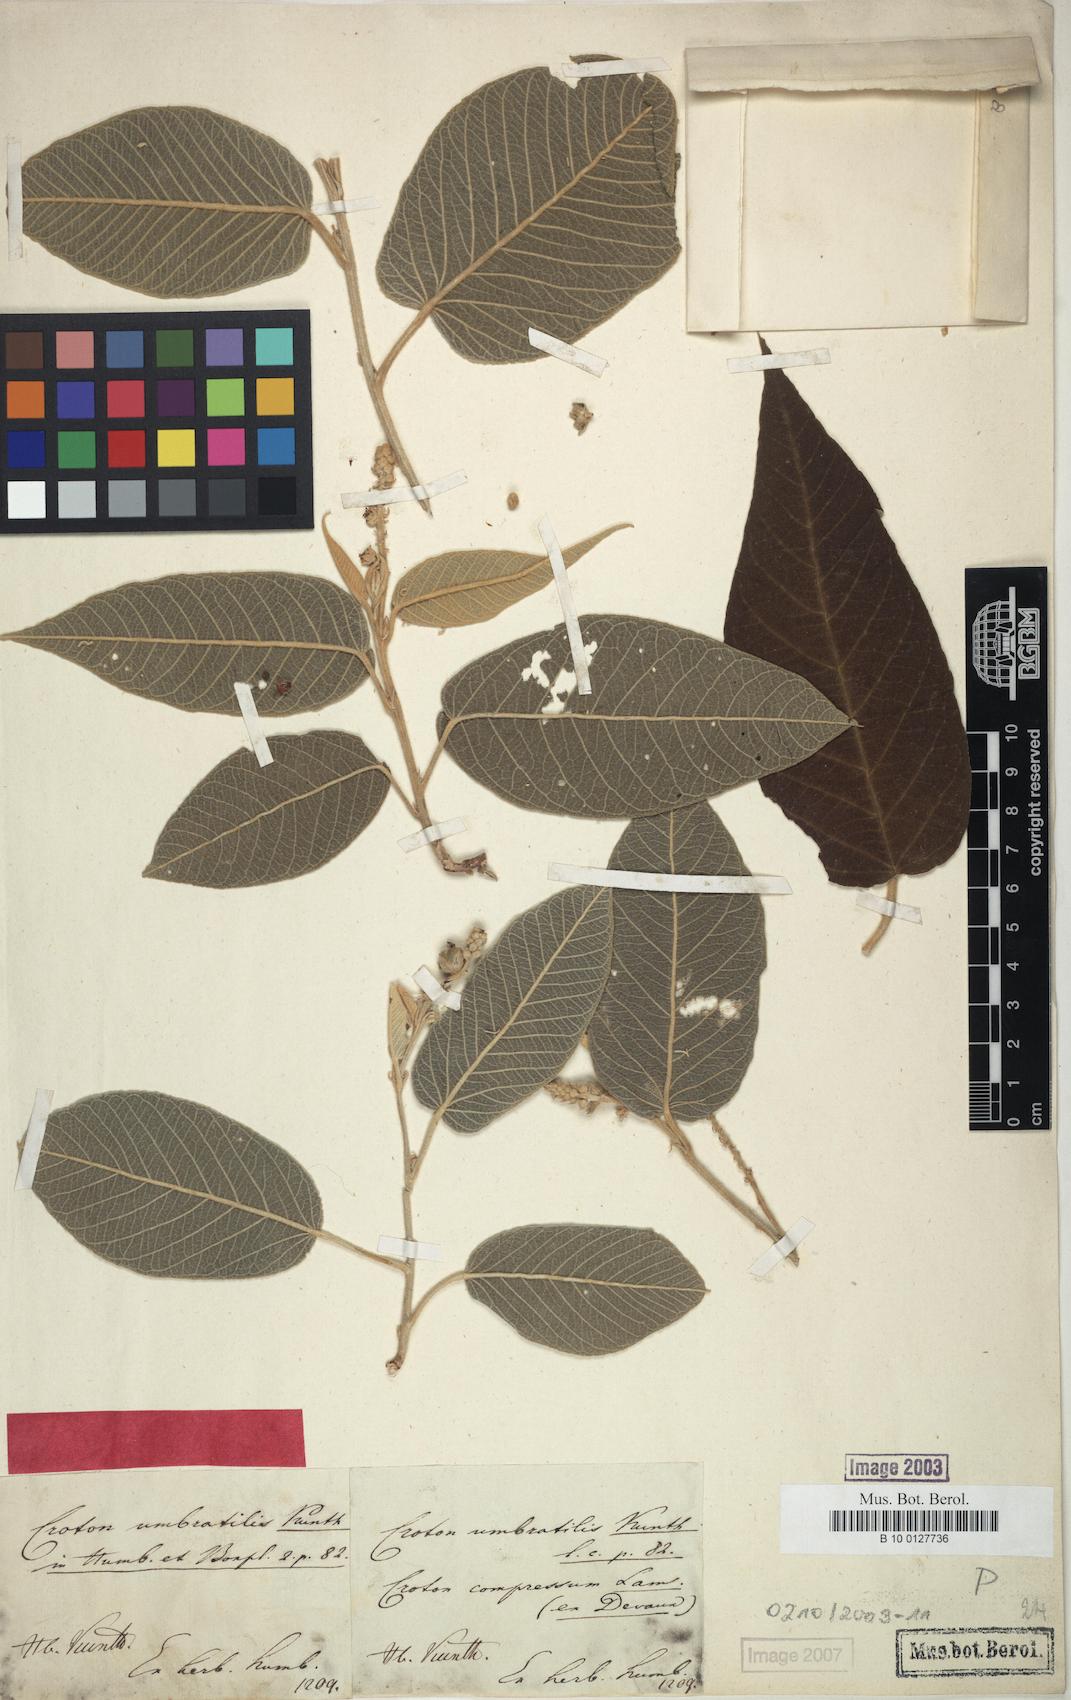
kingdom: Plantae
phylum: Tracheophyta
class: Magnoliopsida
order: Malpighiales
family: Euphorbiaceae
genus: Croton
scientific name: Croton umbratilis
